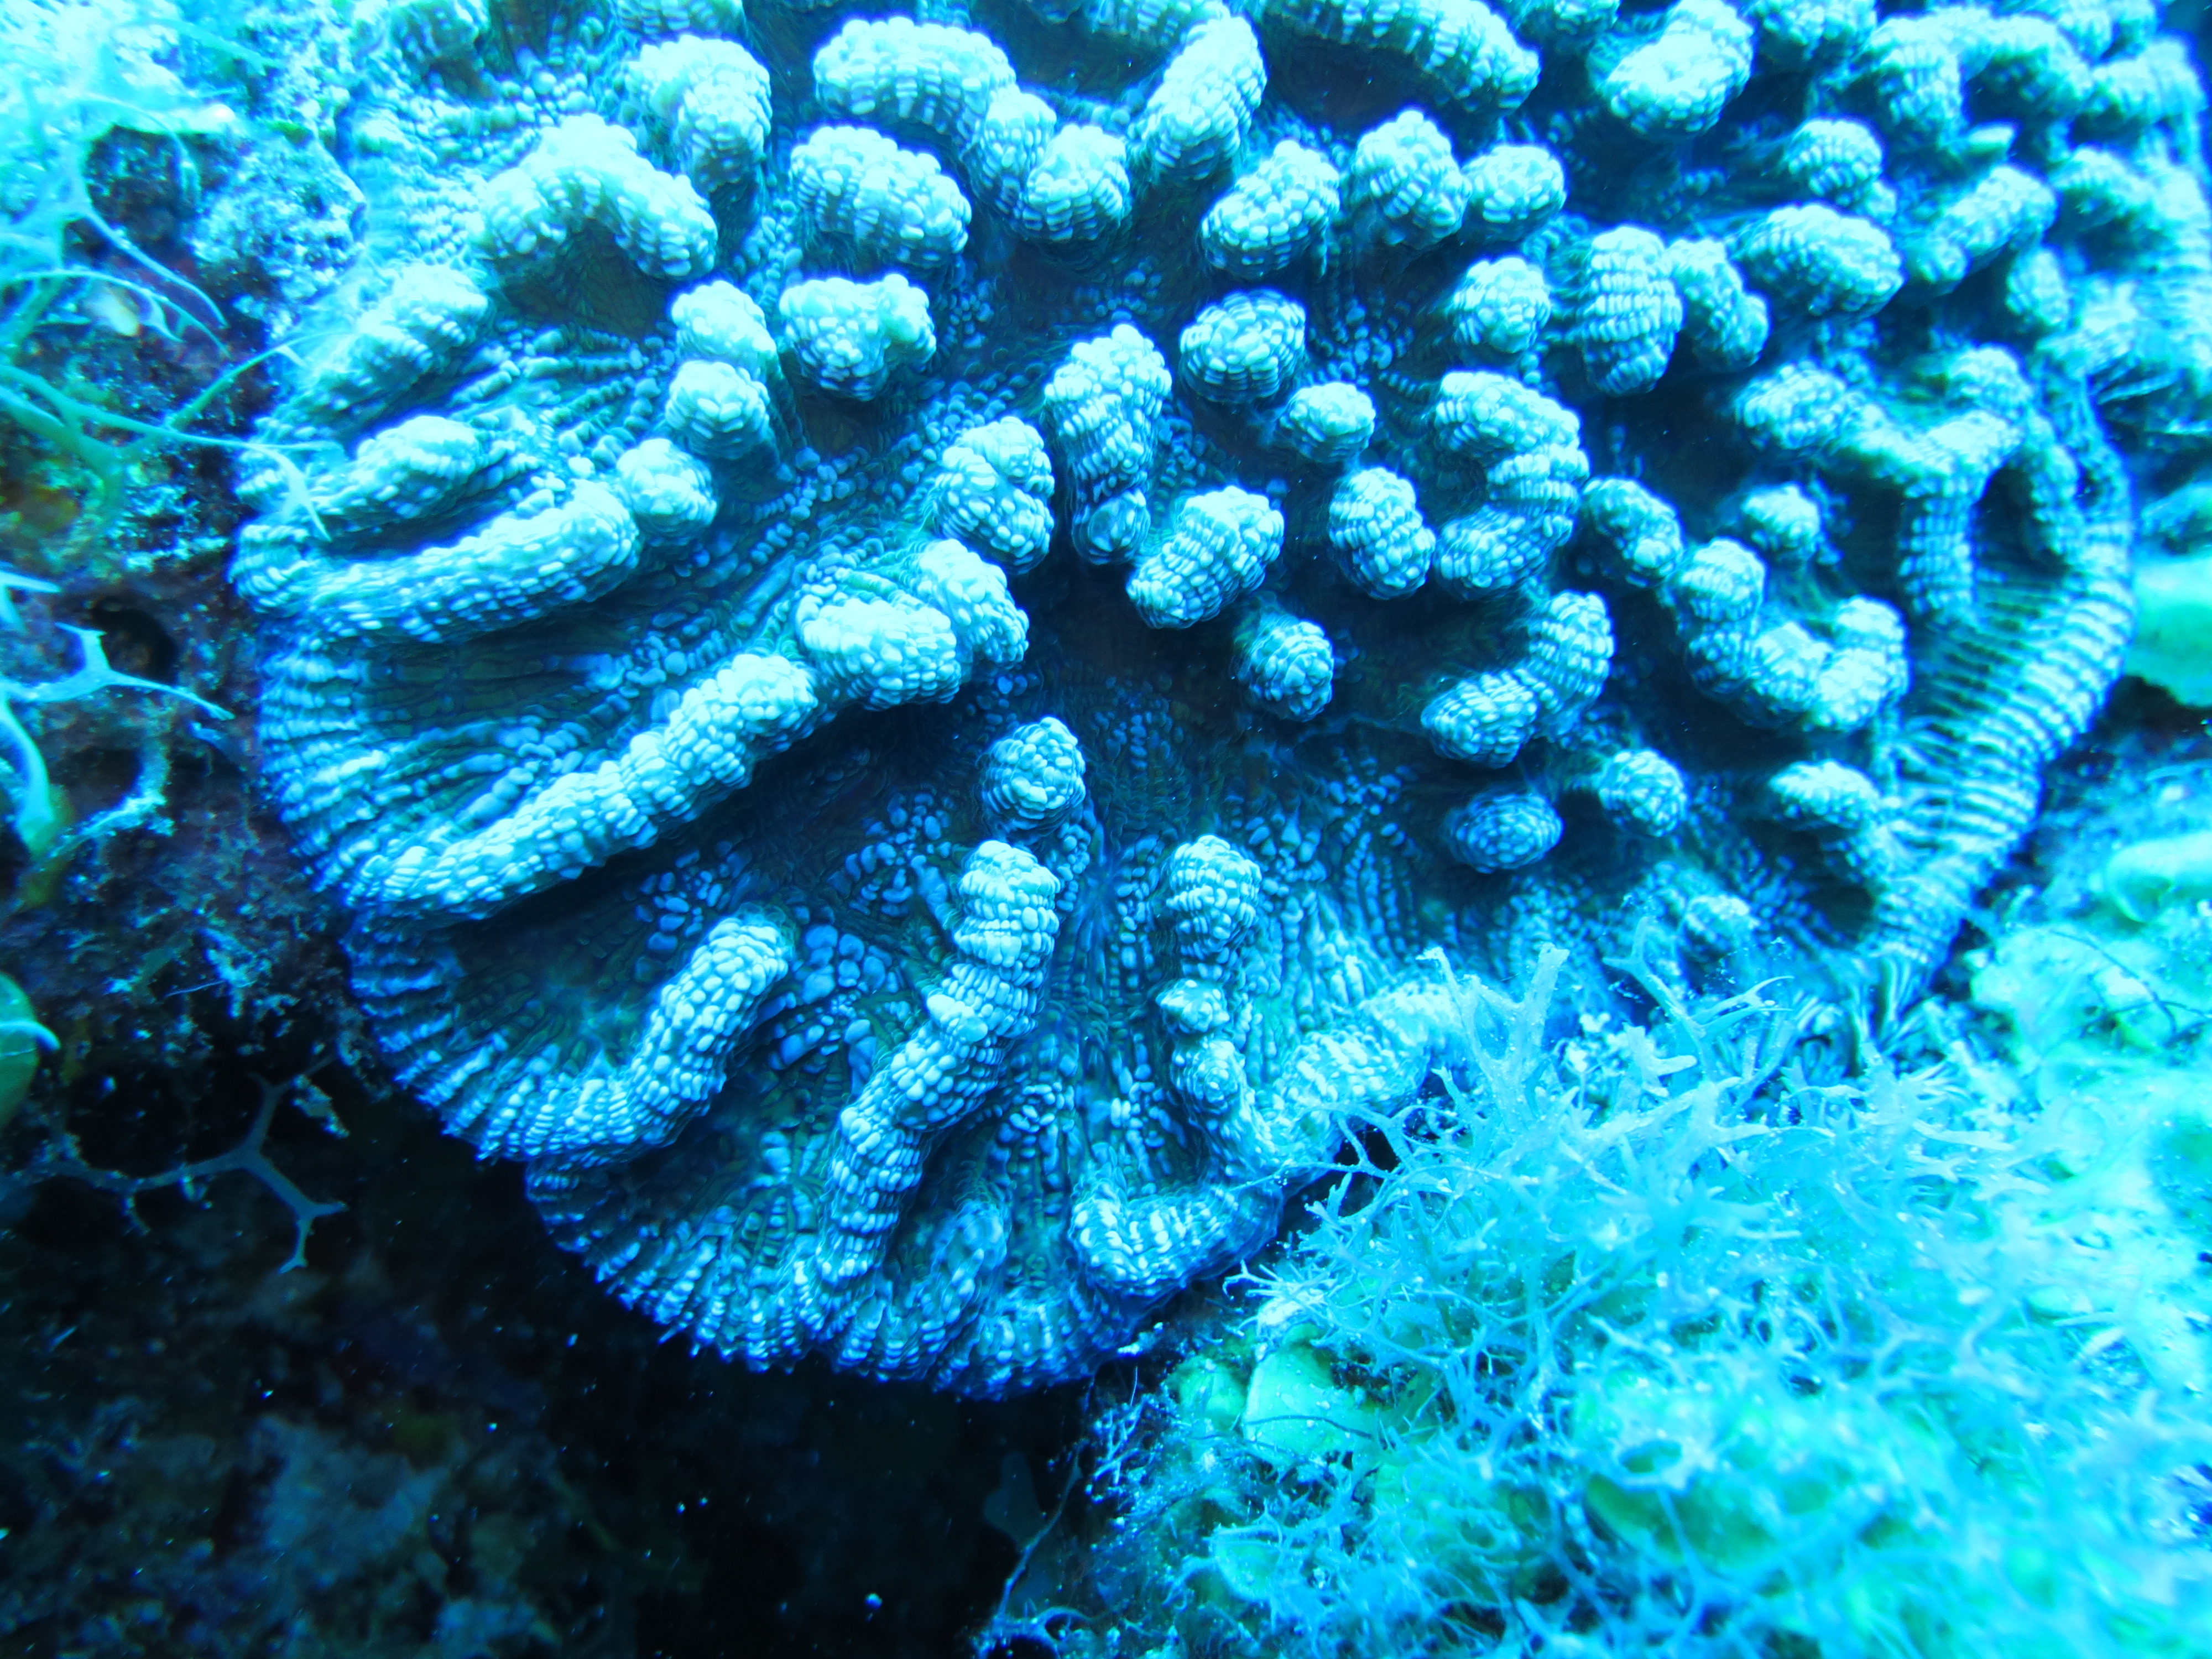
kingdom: Animalia
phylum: Cnidaria
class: Anthozoa
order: Scleractinia
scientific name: Scleractinia
